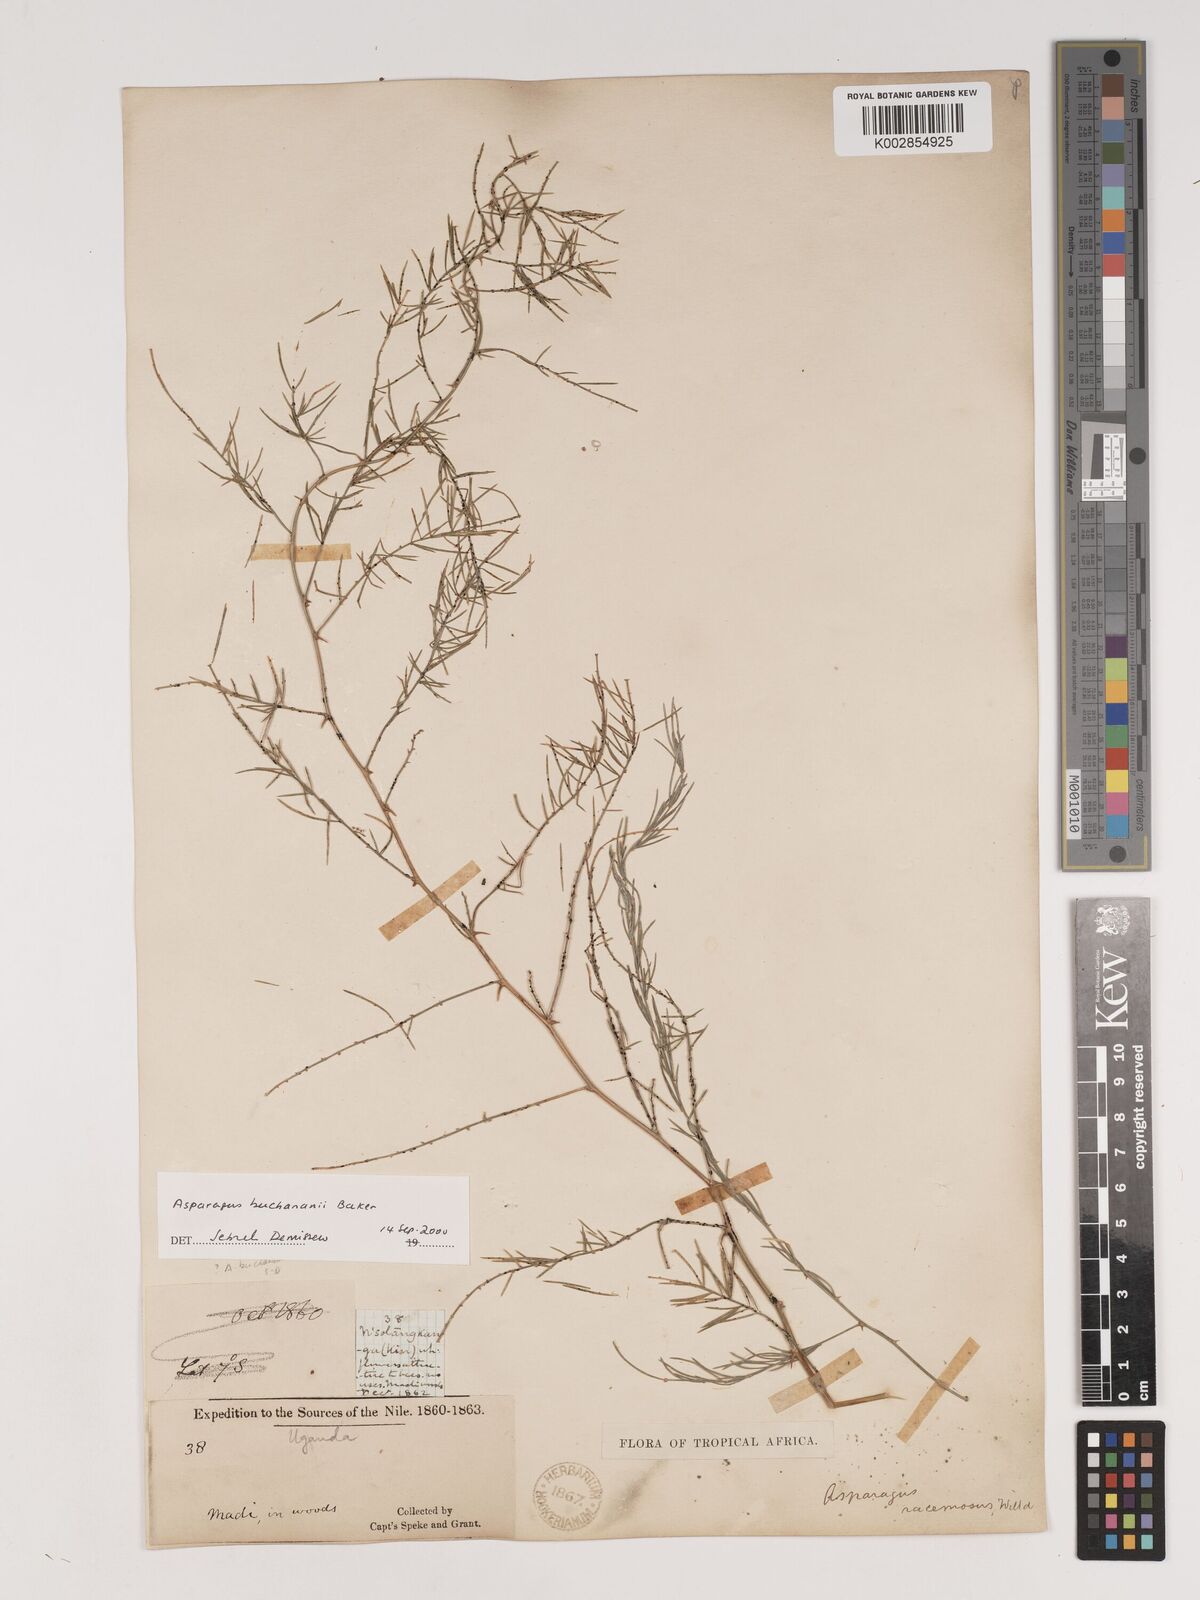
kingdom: Plantae
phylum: Tracheophyta
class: Liliopsida
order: Asparagales
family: Asparagaceae
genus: Asparagus
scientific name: Asparagus buchananii
